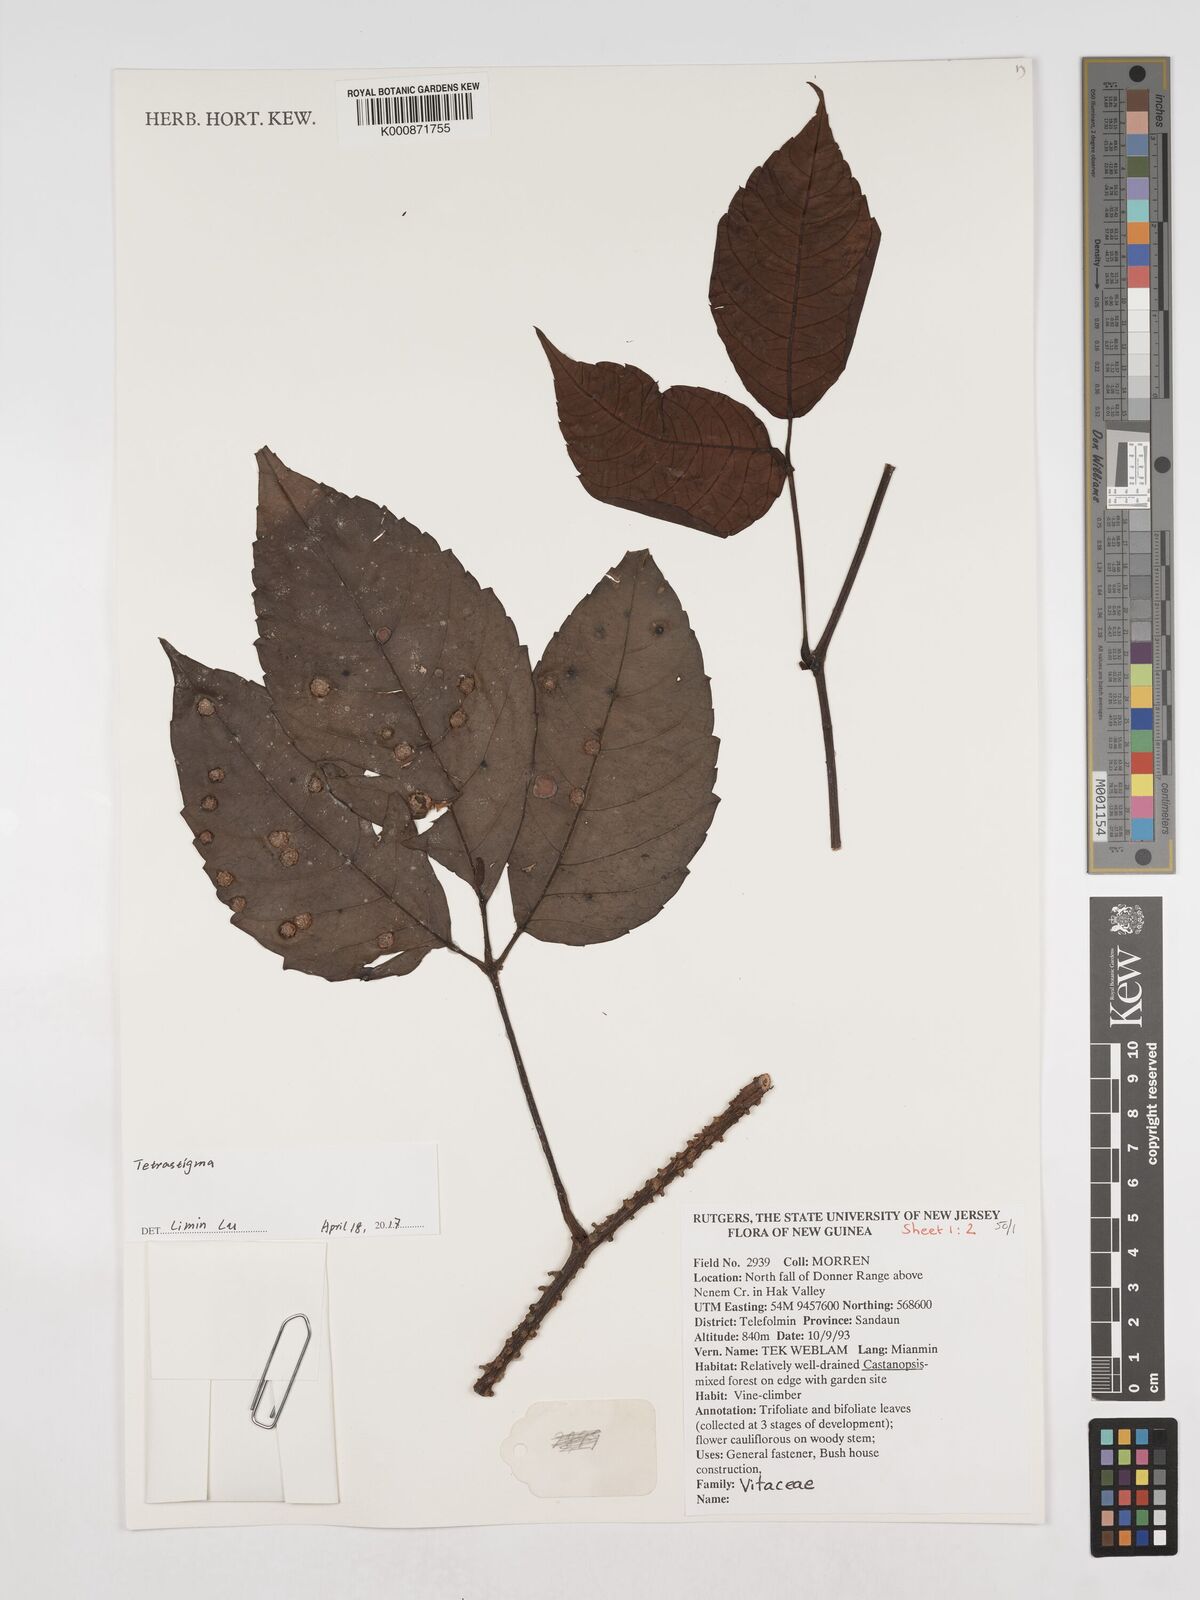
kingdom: Plantae
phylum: Tracheophyta
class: Magnoliopsida
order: Vitales
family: Vitaceae
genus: Tetrastigma
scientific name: Tetrastigma
